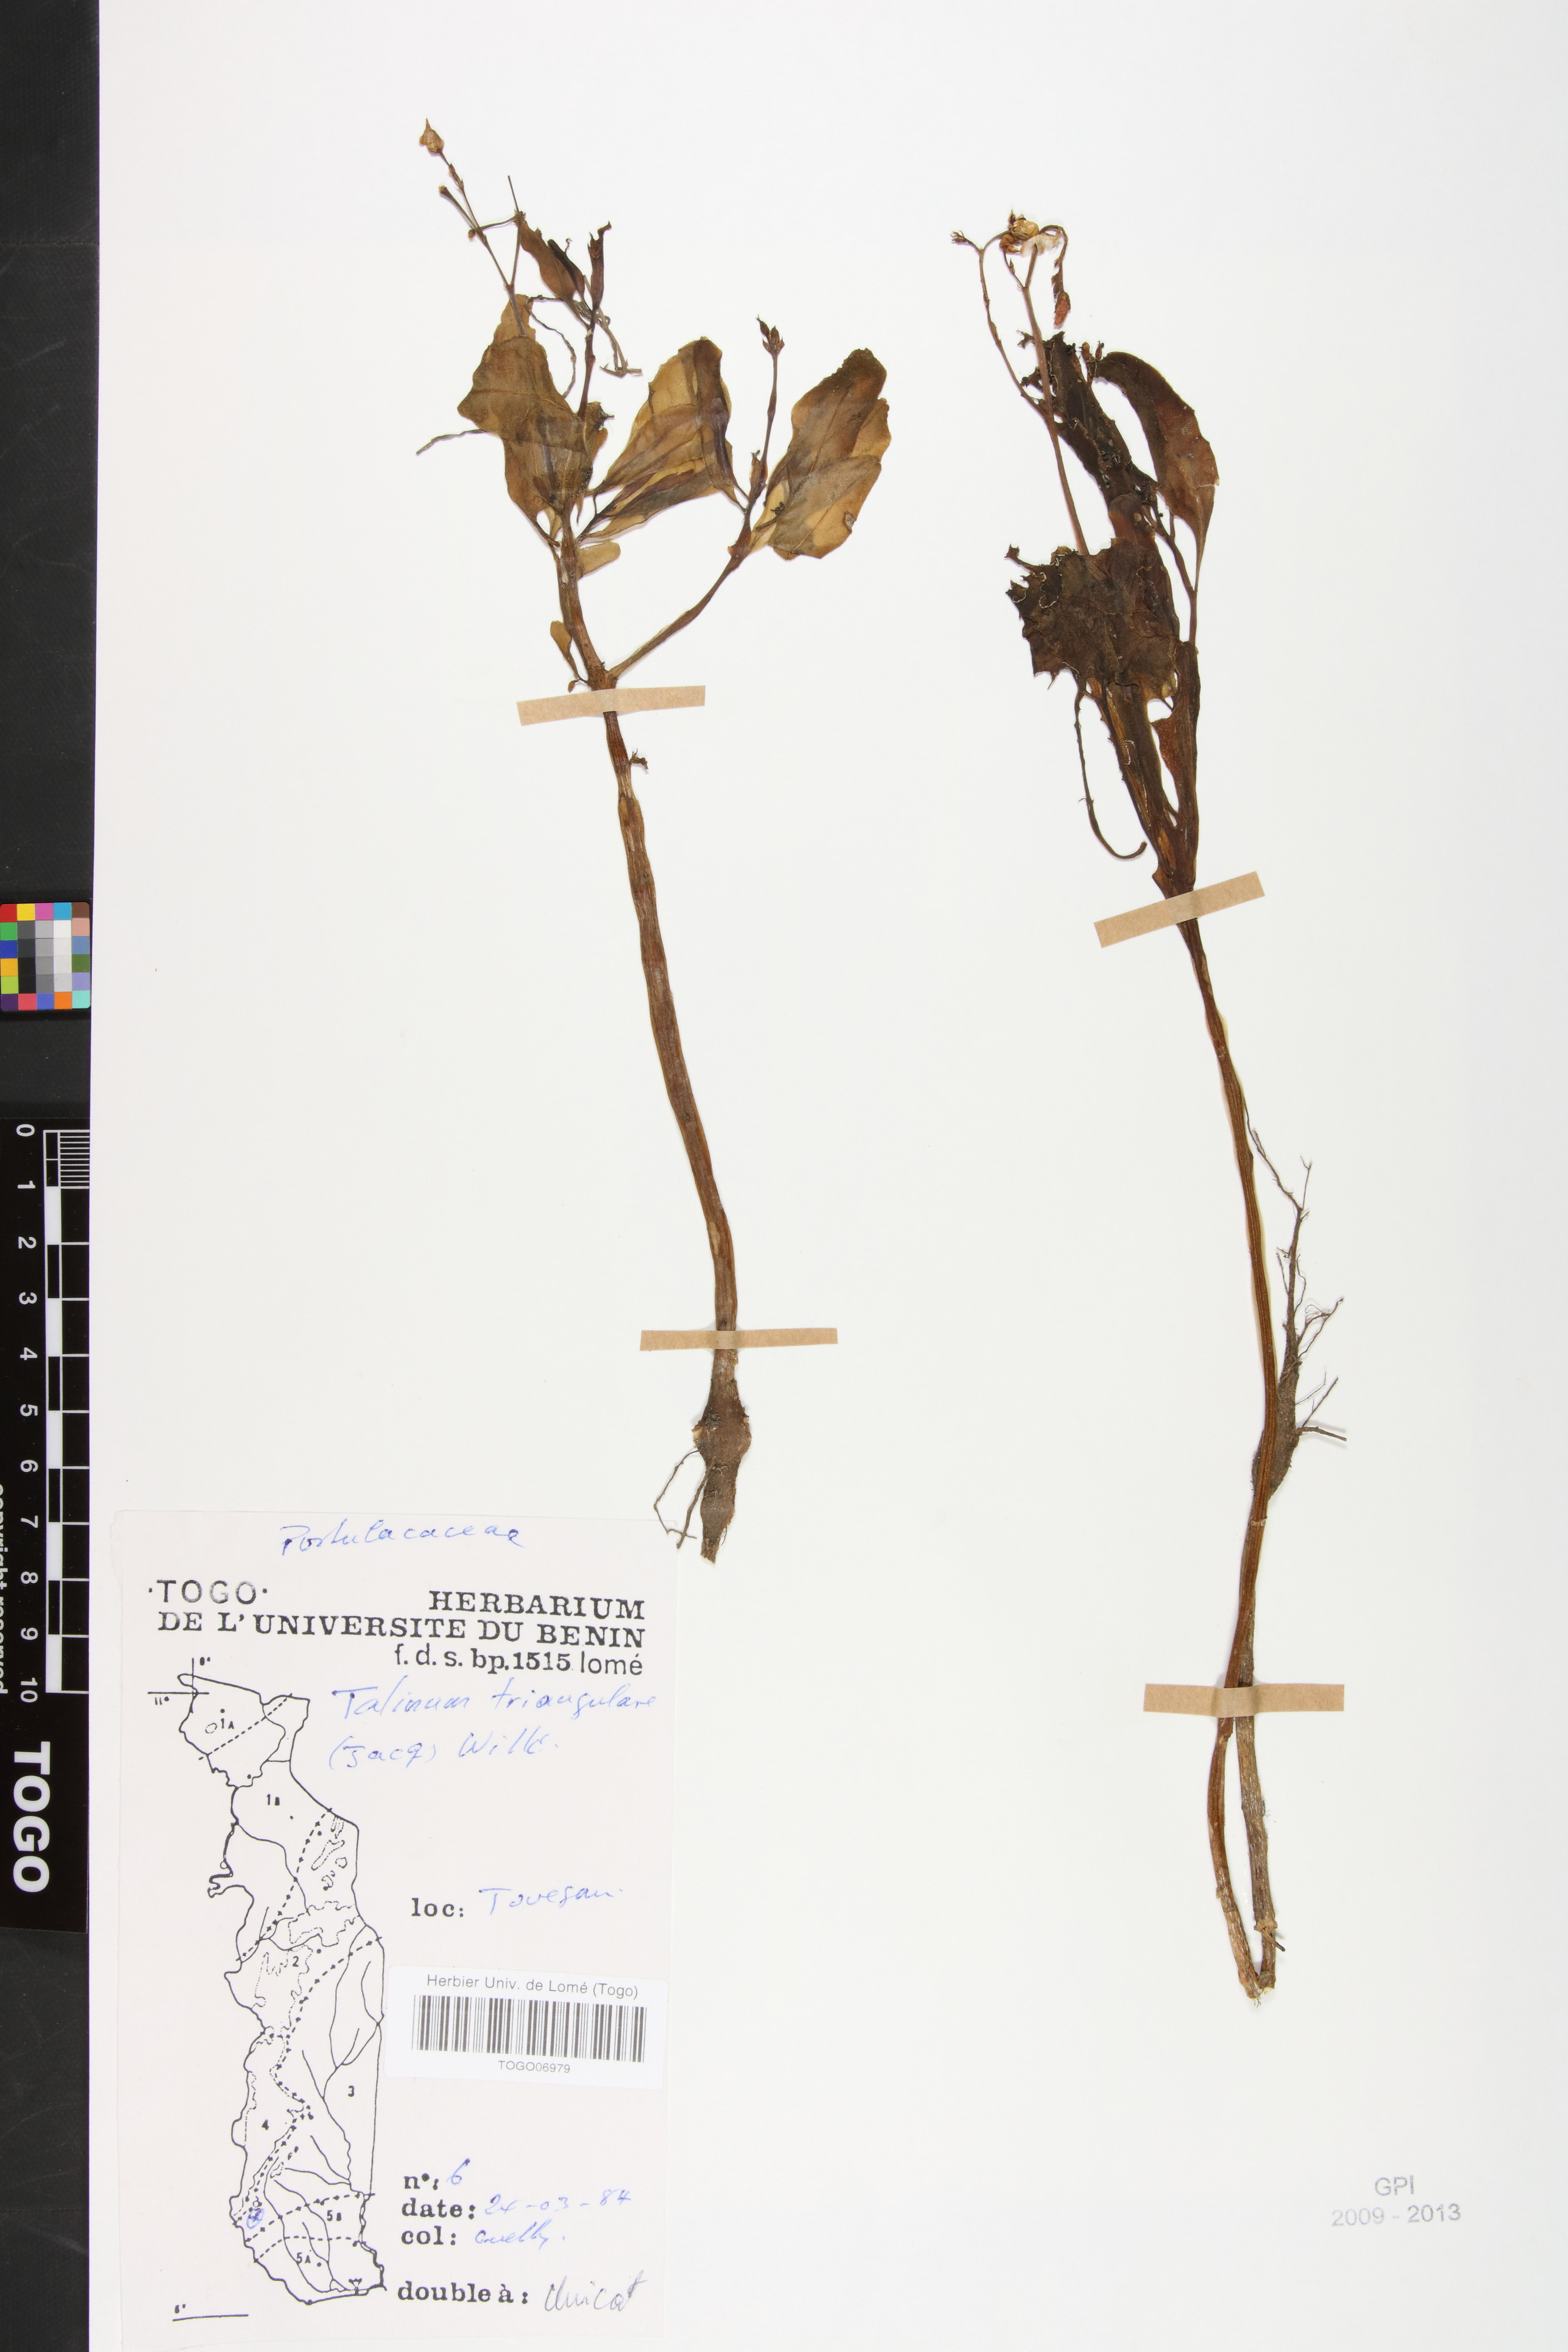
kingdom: Plantae
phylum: Tracheophyta
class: Magnoliopsida
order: Caryophyllales
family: Talinaceae
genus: Talinum
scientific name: Talinum fruticosum
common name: Verdolaga-francesa
